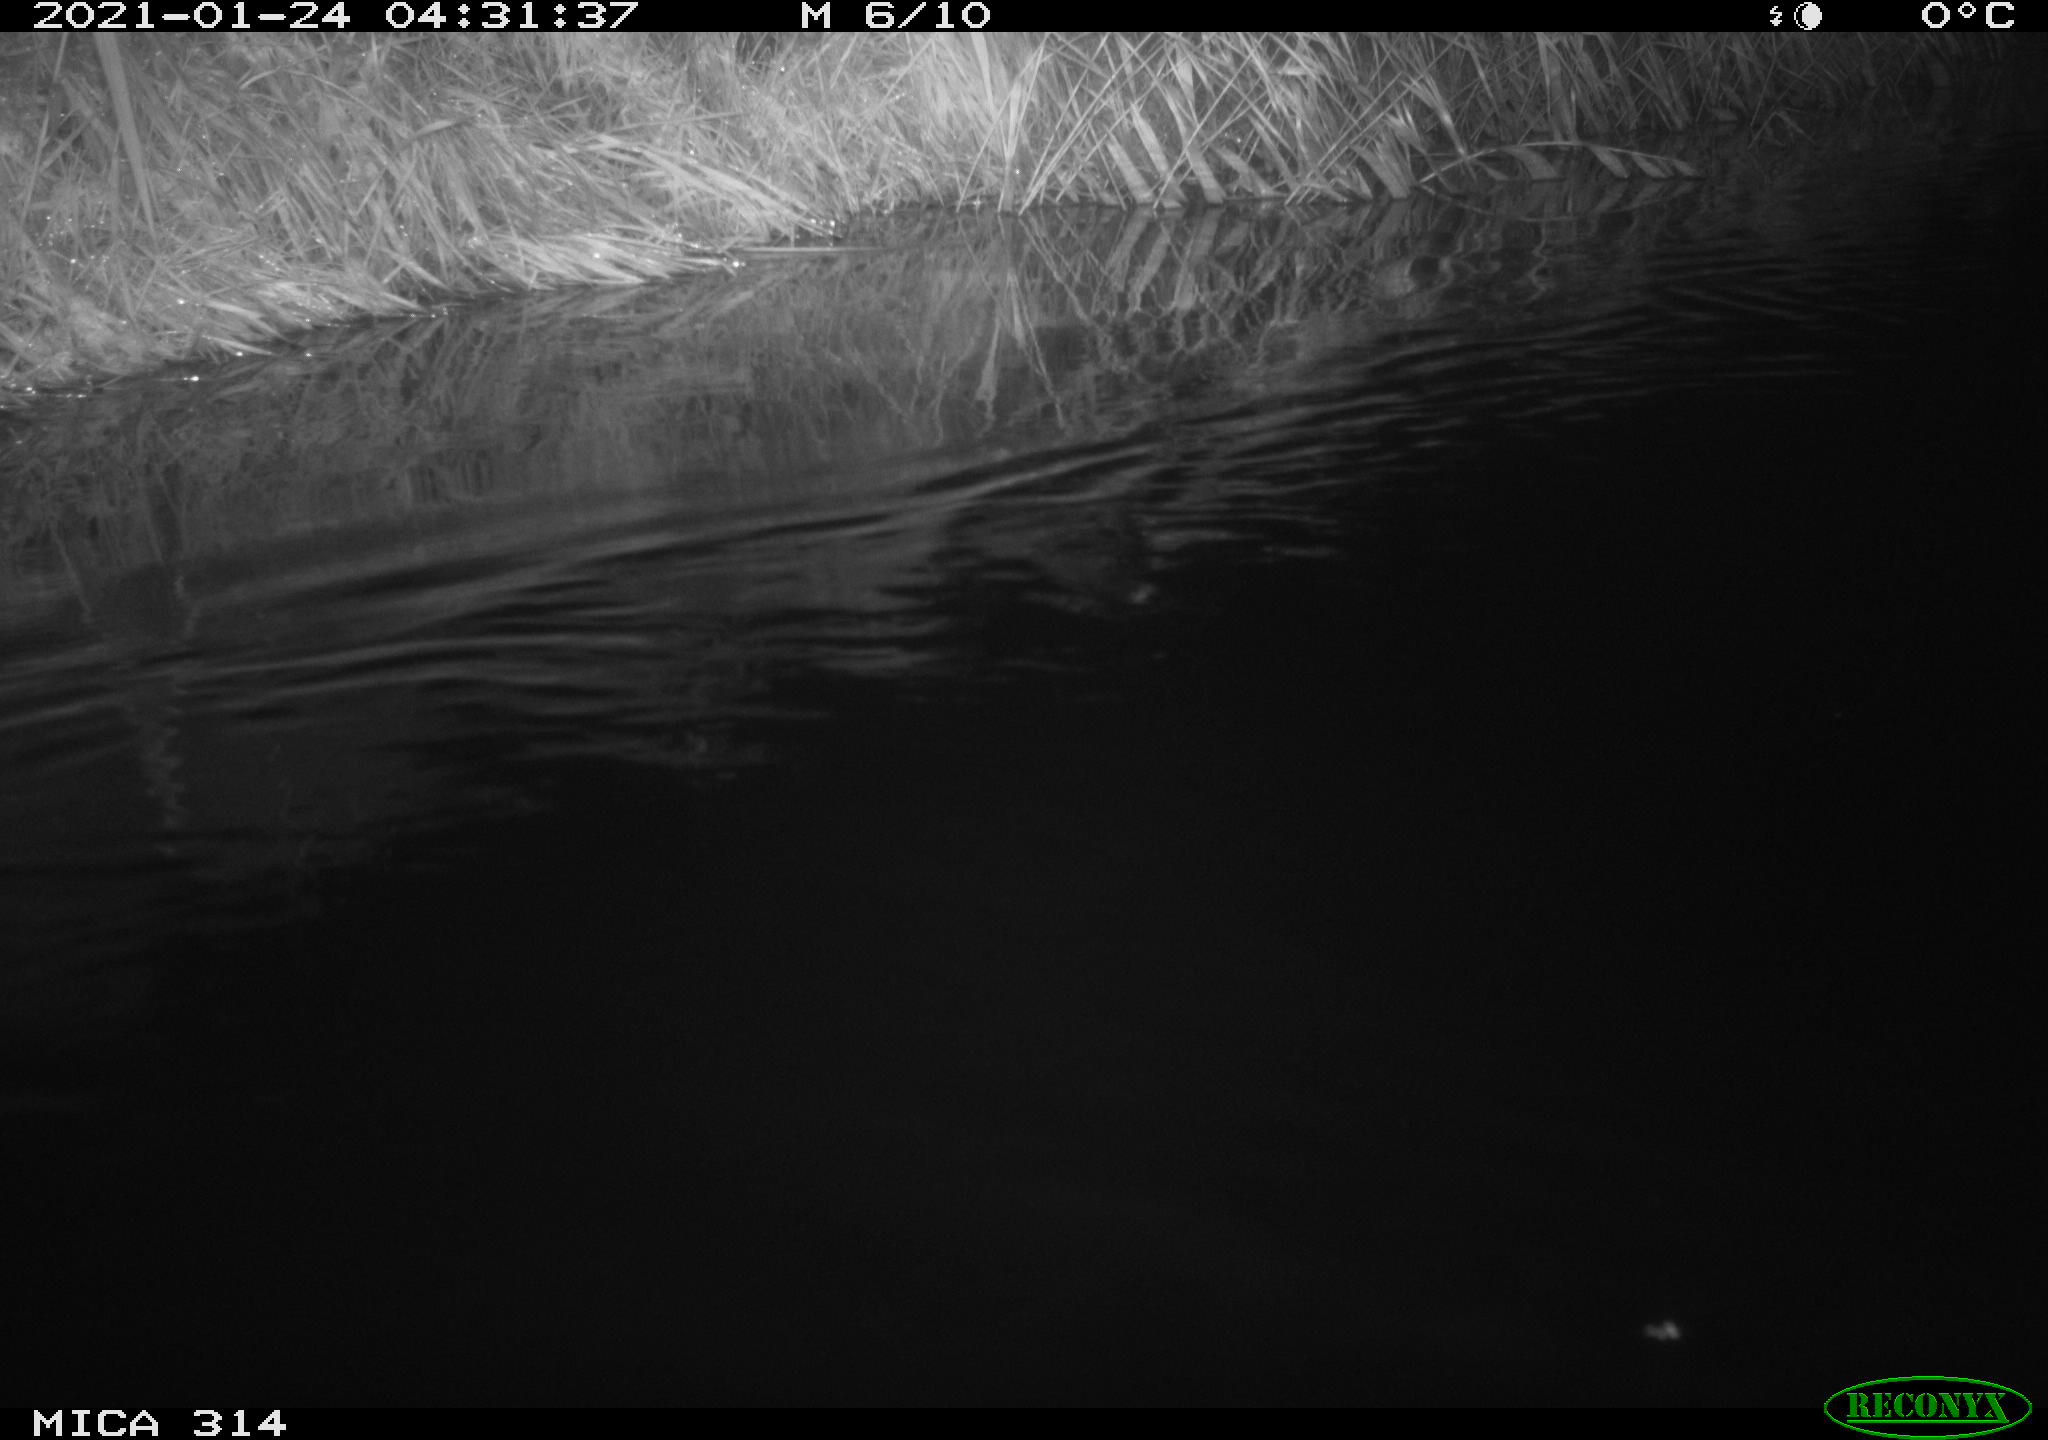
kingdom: Animalia
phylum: Chordata
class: Mammalia
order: Rodentia
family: Muridae
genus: Rattus
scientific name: Rattus norvegicus
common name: Brown rat
